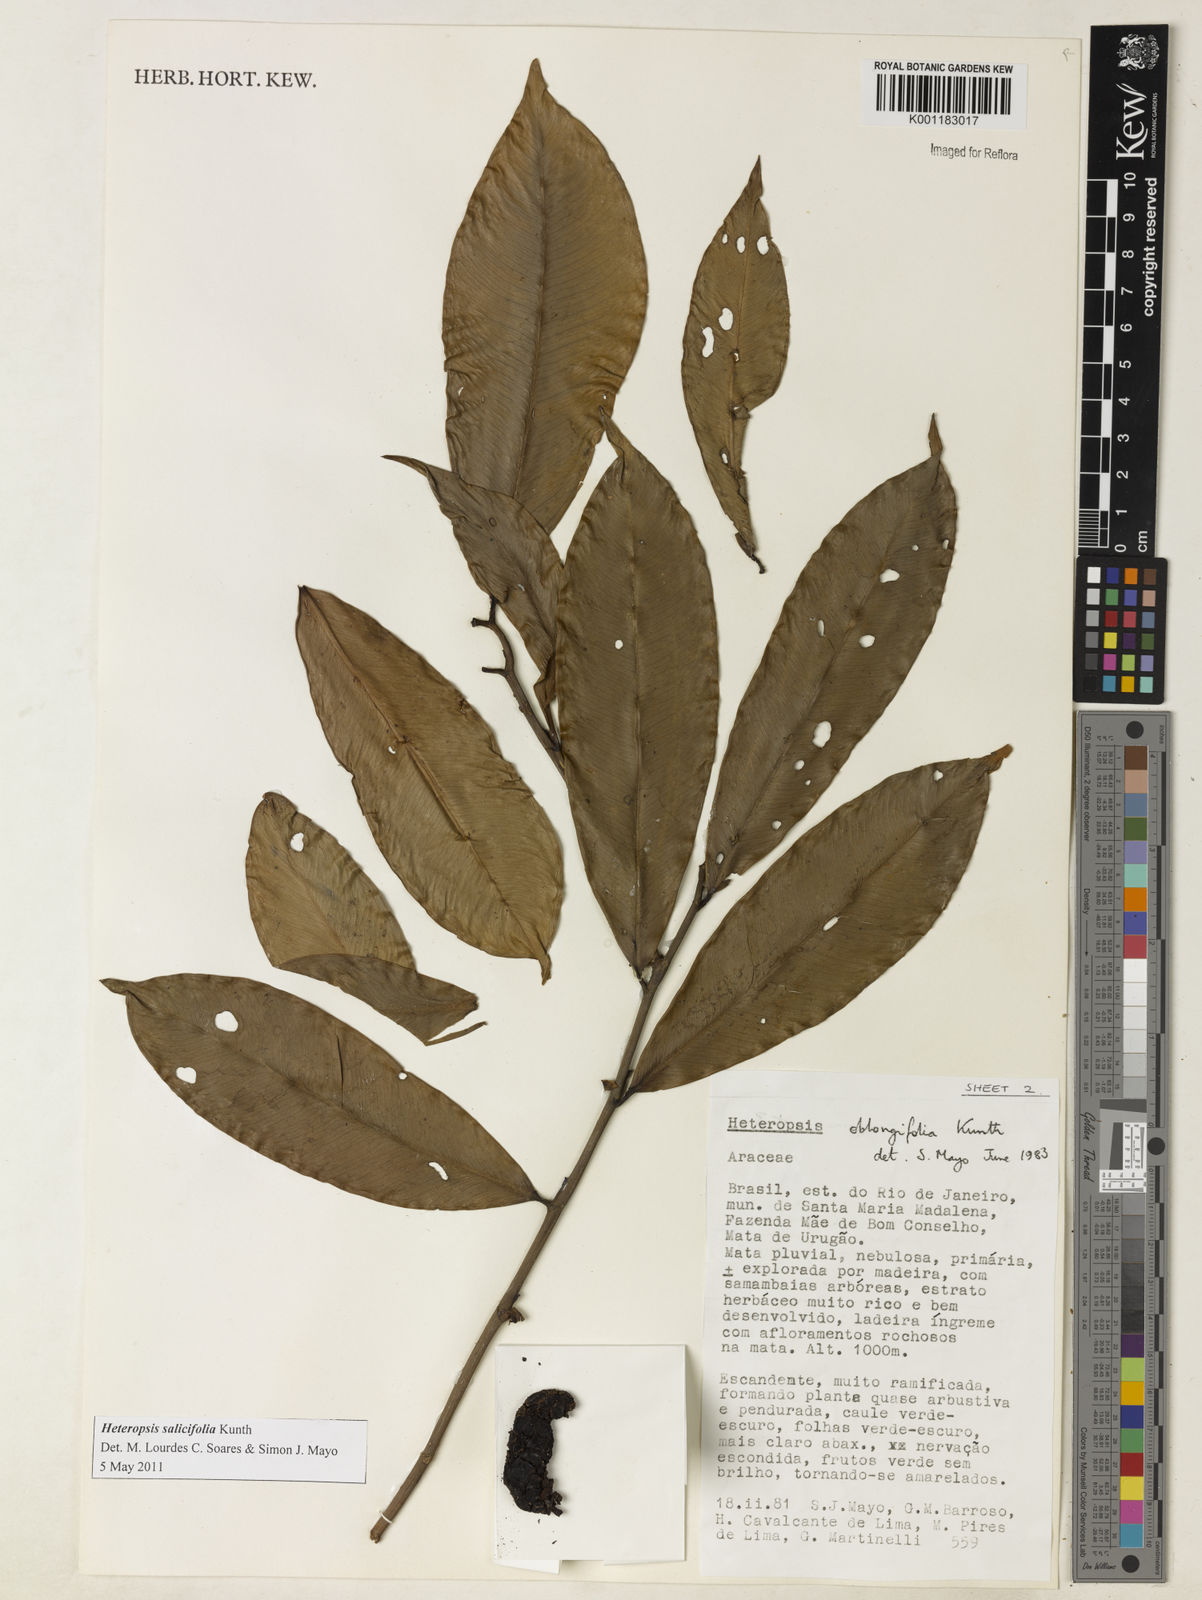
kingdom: Plantae
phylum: Tracheophyta
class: Liliopsida
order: Alismatales
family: Araceae
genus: Heteropsis
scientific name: Heteropsis salicifolia
